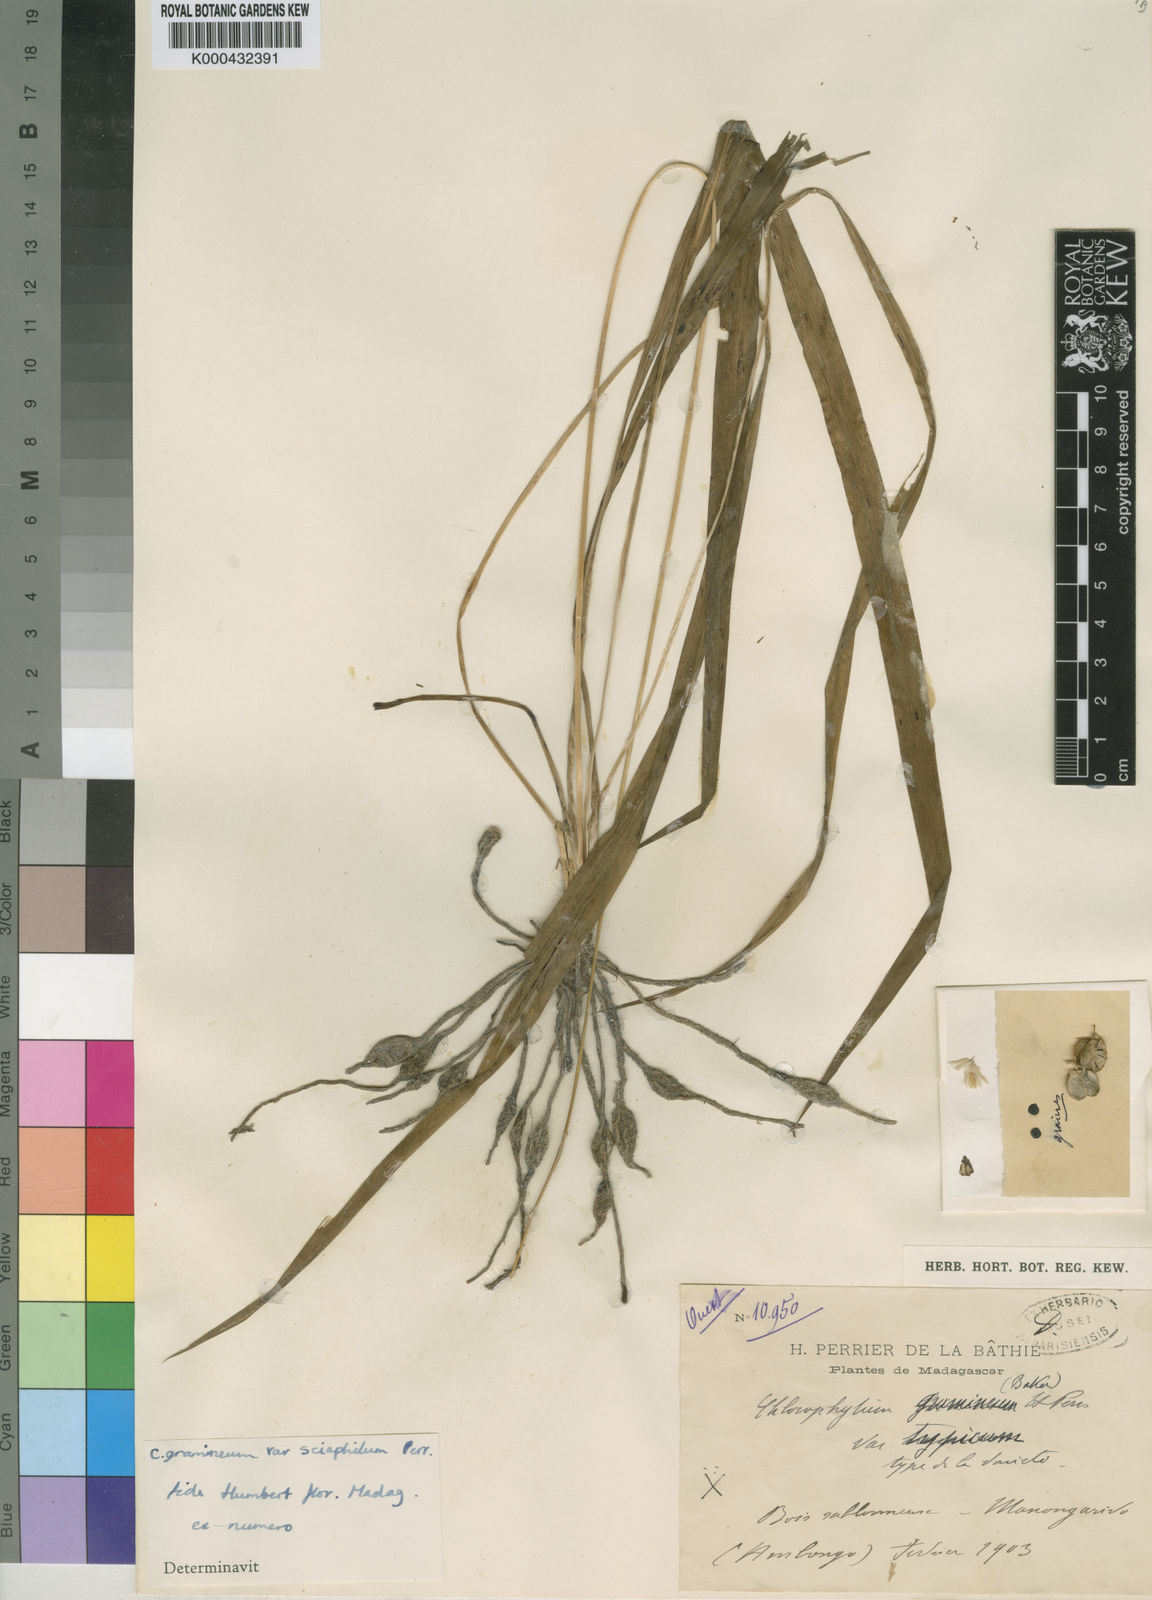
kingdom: Plantae
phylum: Tracheophyta
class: Liliopsida
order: Asparagales
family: Asparagaceae
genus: Chlorophytum
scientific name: Chlorophytum madagascariense
